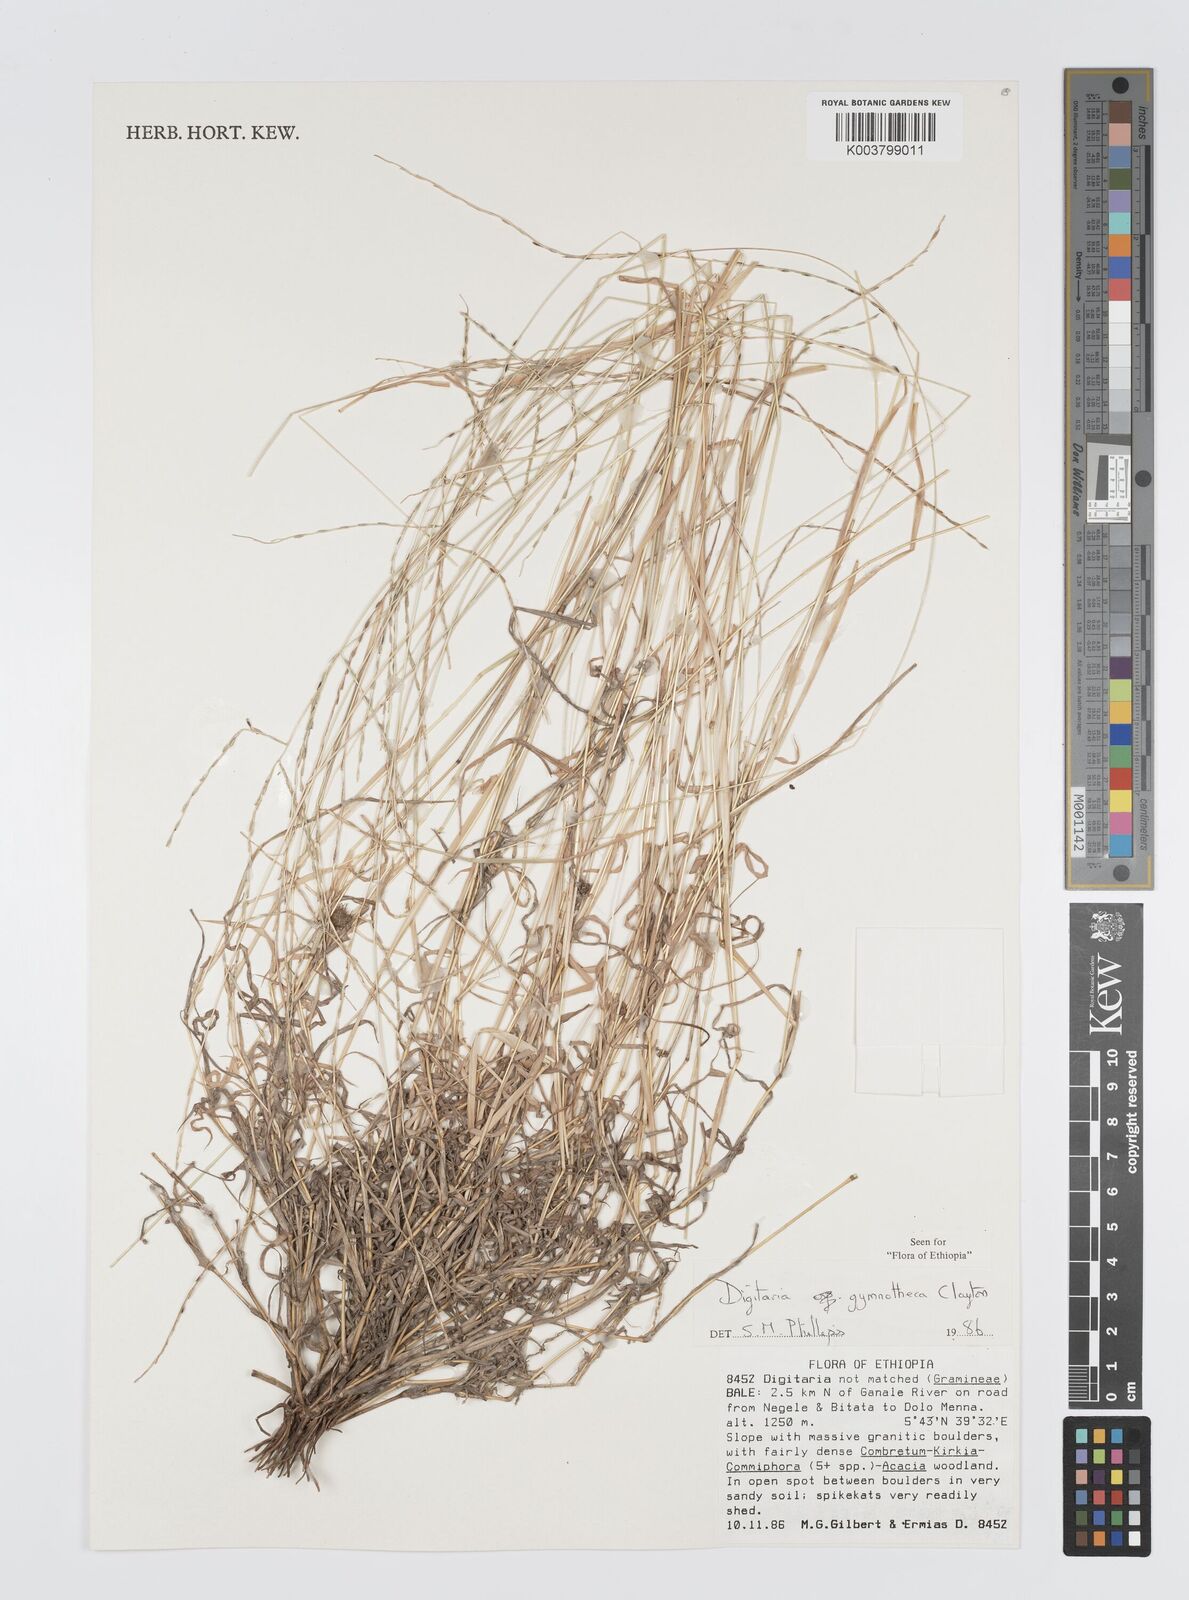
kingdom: Plantae
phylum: Tracheophyta
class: Liliopsida
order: Poales
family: Poaceae
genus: Digitaria
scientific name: Digitaria gymnotheca
